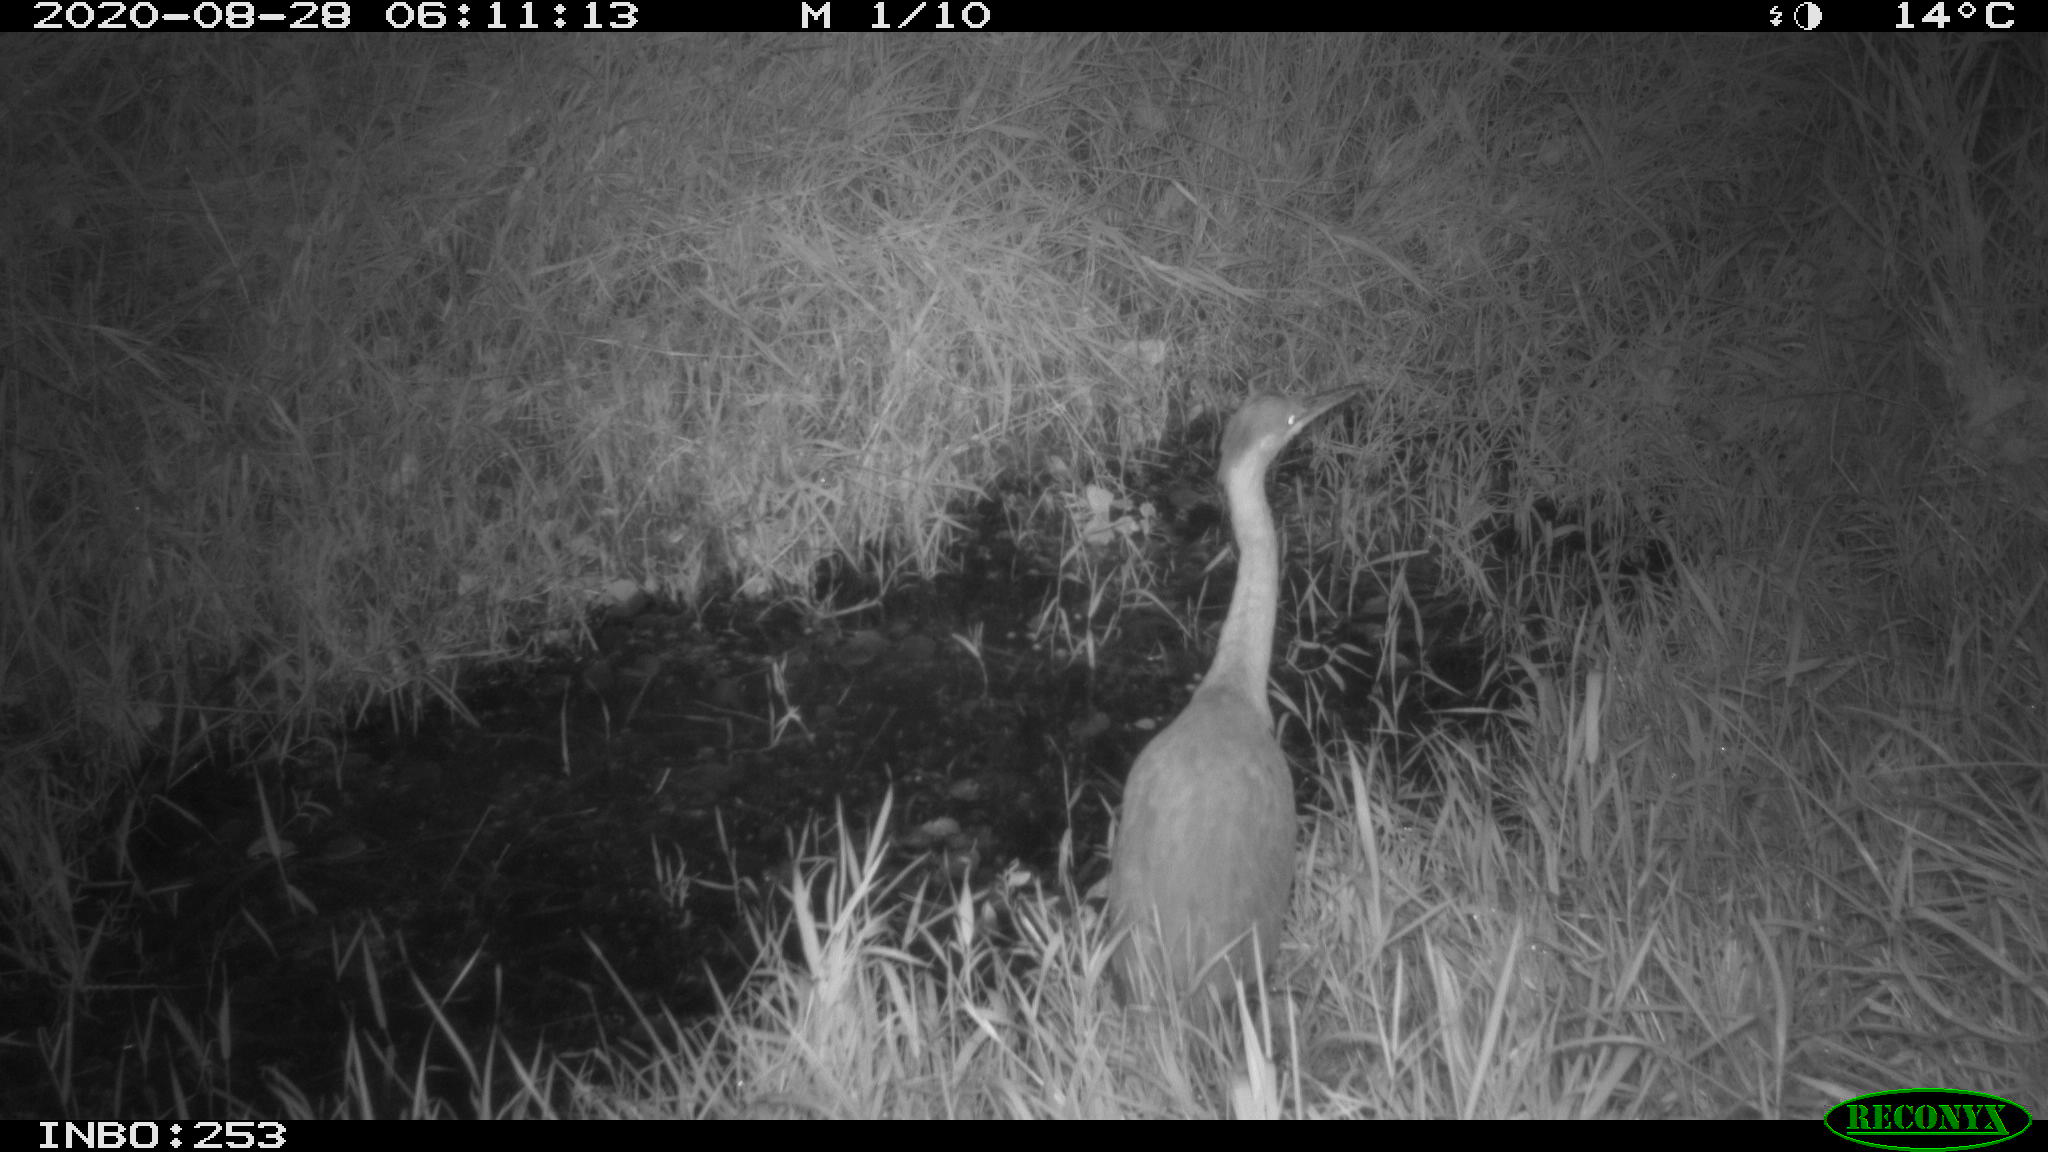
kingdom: Animalia
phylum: Chordata
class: Aves
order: Pelecaniformes
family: Ardeidae
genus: Ardea
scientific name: Ardea cinerea
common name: Grey heron
